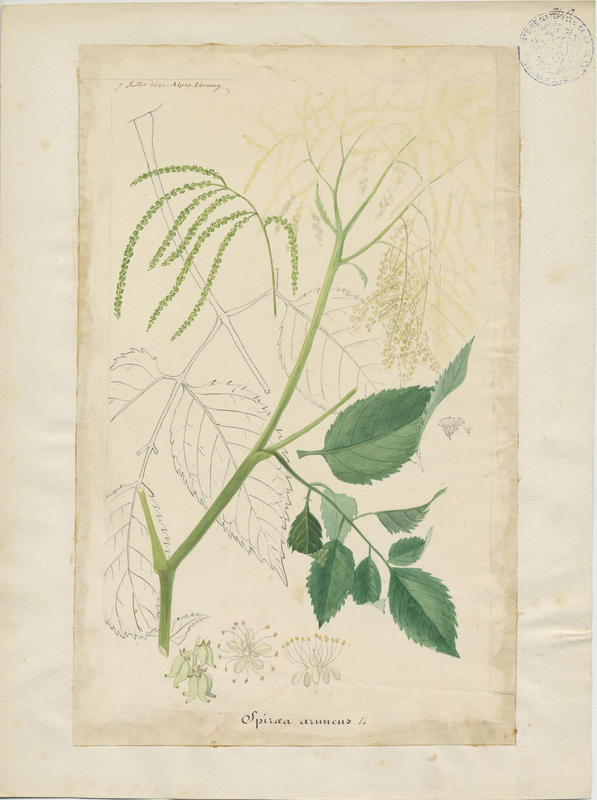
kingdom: Plantae
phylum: Tracheophyta
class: Magnoliopsida
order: Rosales
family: Rosaceae
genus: Aruncus
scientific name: Aruncus dioicus
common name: Buck's-beard
